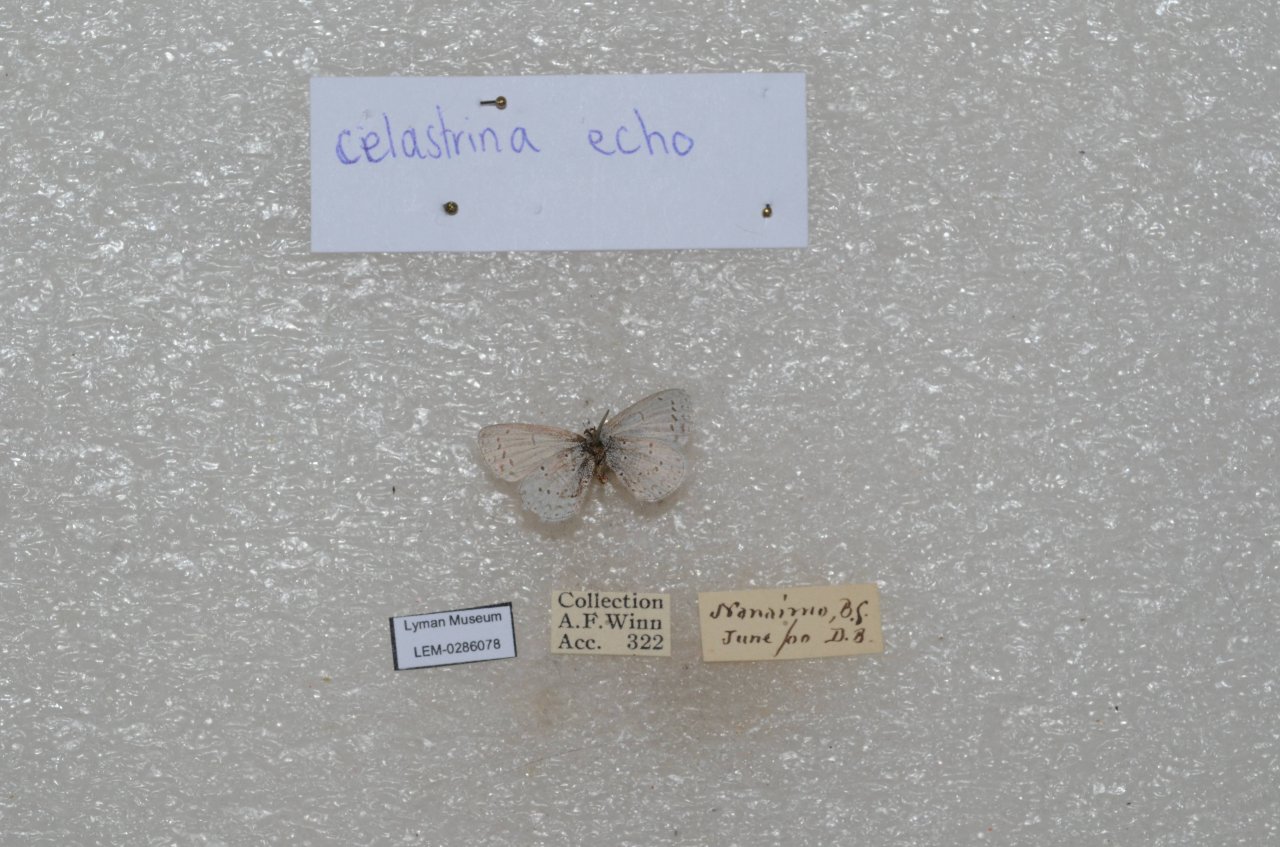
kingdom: Animalia
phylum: Arthropoda
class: Insecta
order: Lepidoptera
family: Lycaenidae
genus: Celastrina
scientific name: Celastrina ladon
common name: Echo Azure
